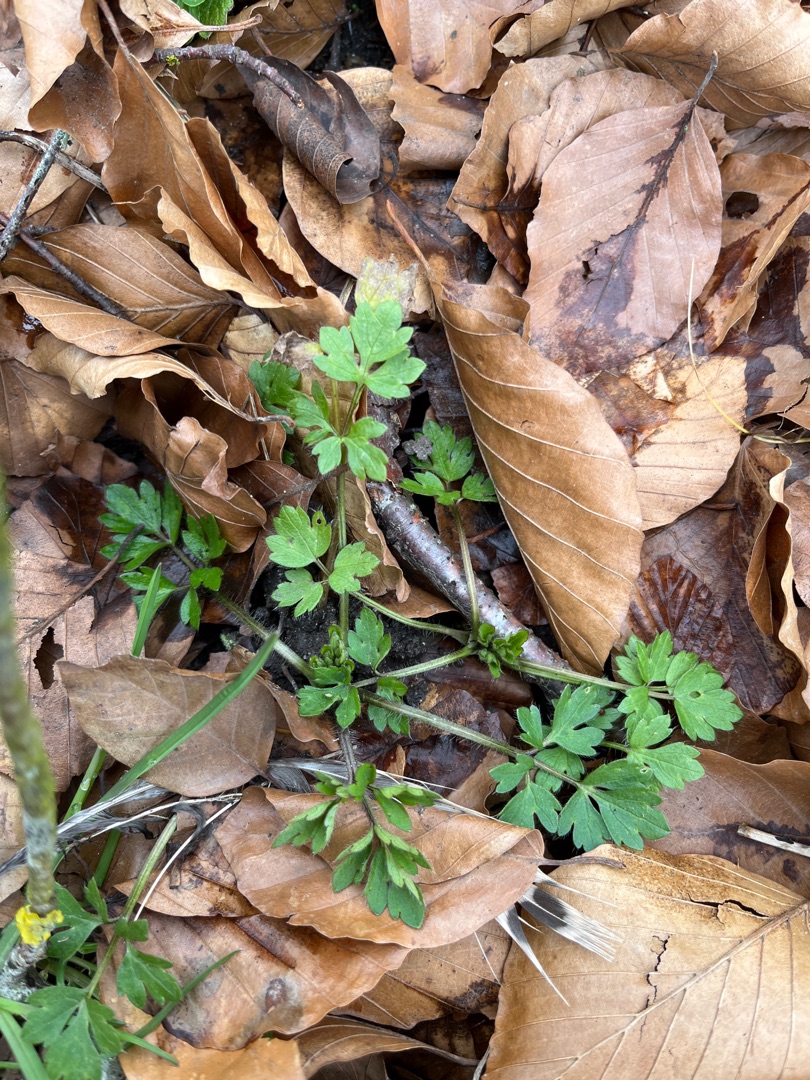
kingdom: Plantae
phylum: Tracheophyta
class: Magnoliopsida
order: Ranunculales
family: Ranunculaceae
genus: Ranunculus
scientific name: Ranunculus repens
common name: Lav ranunkel
